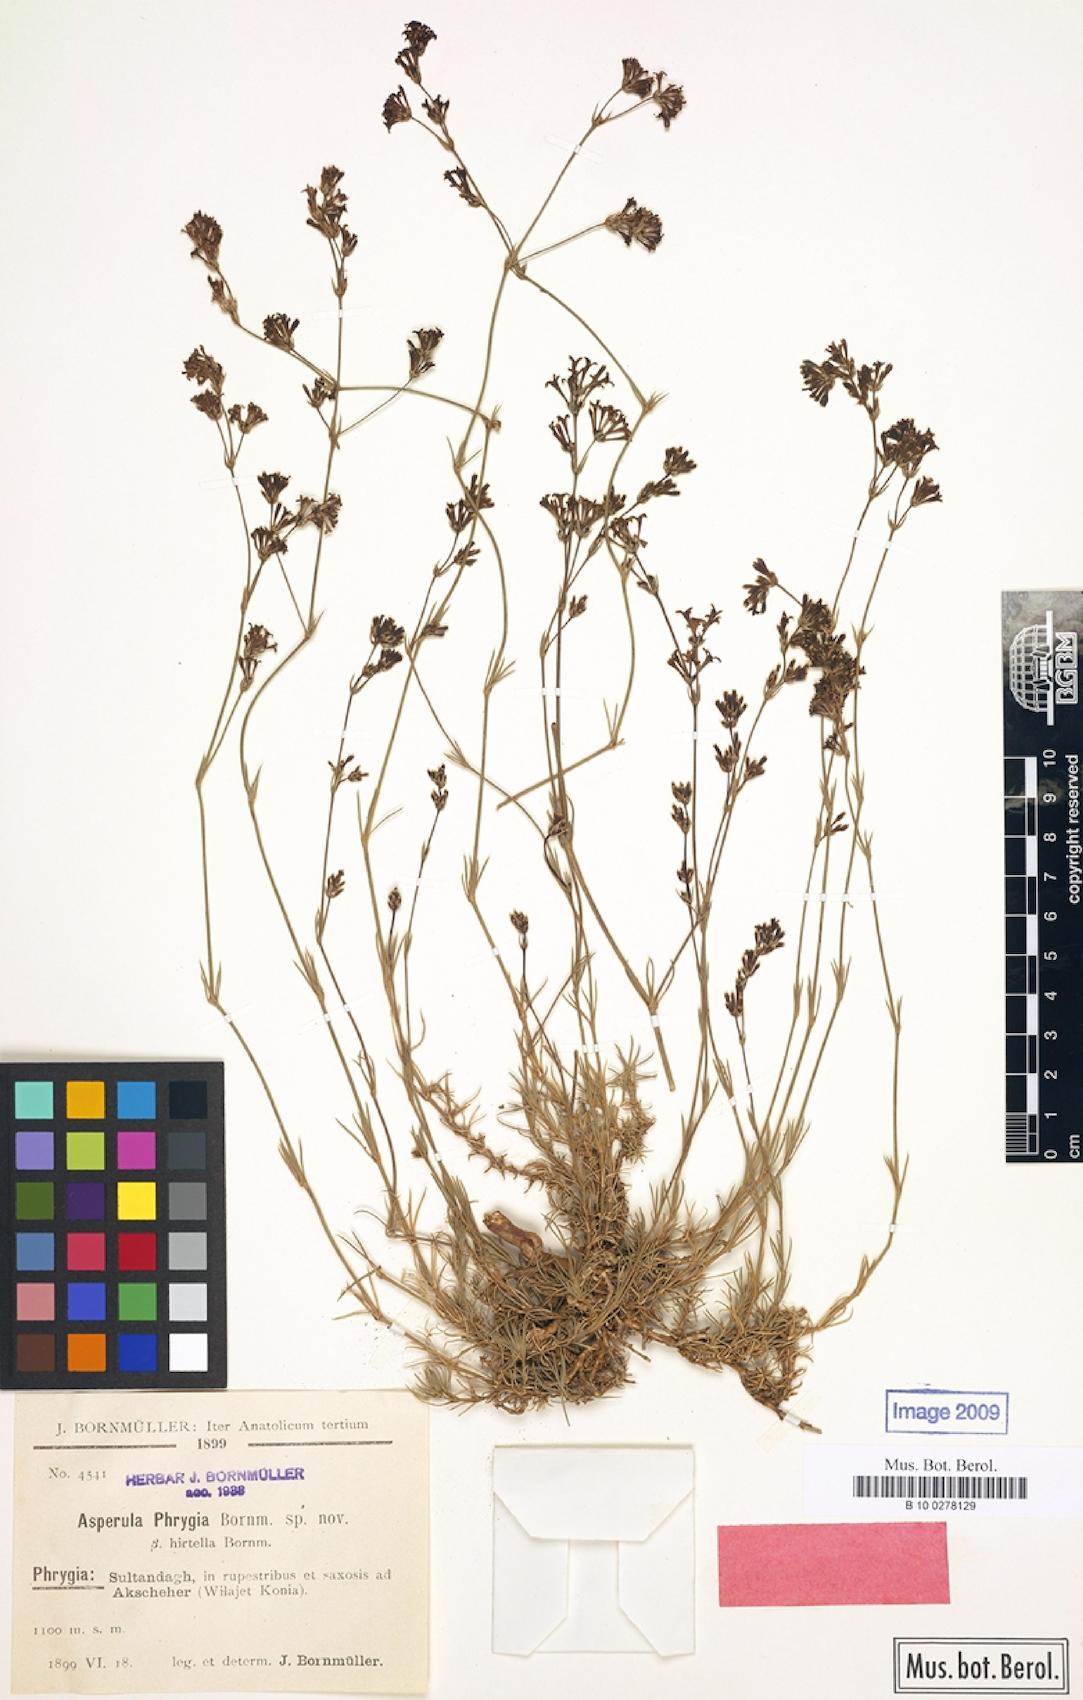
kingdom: Plantae
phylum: Tracheophyta
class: Magnoliopsida
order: Gentianales
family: Rubiaceae
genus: Cynanchica
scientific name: Cynanchica lilaciflora
